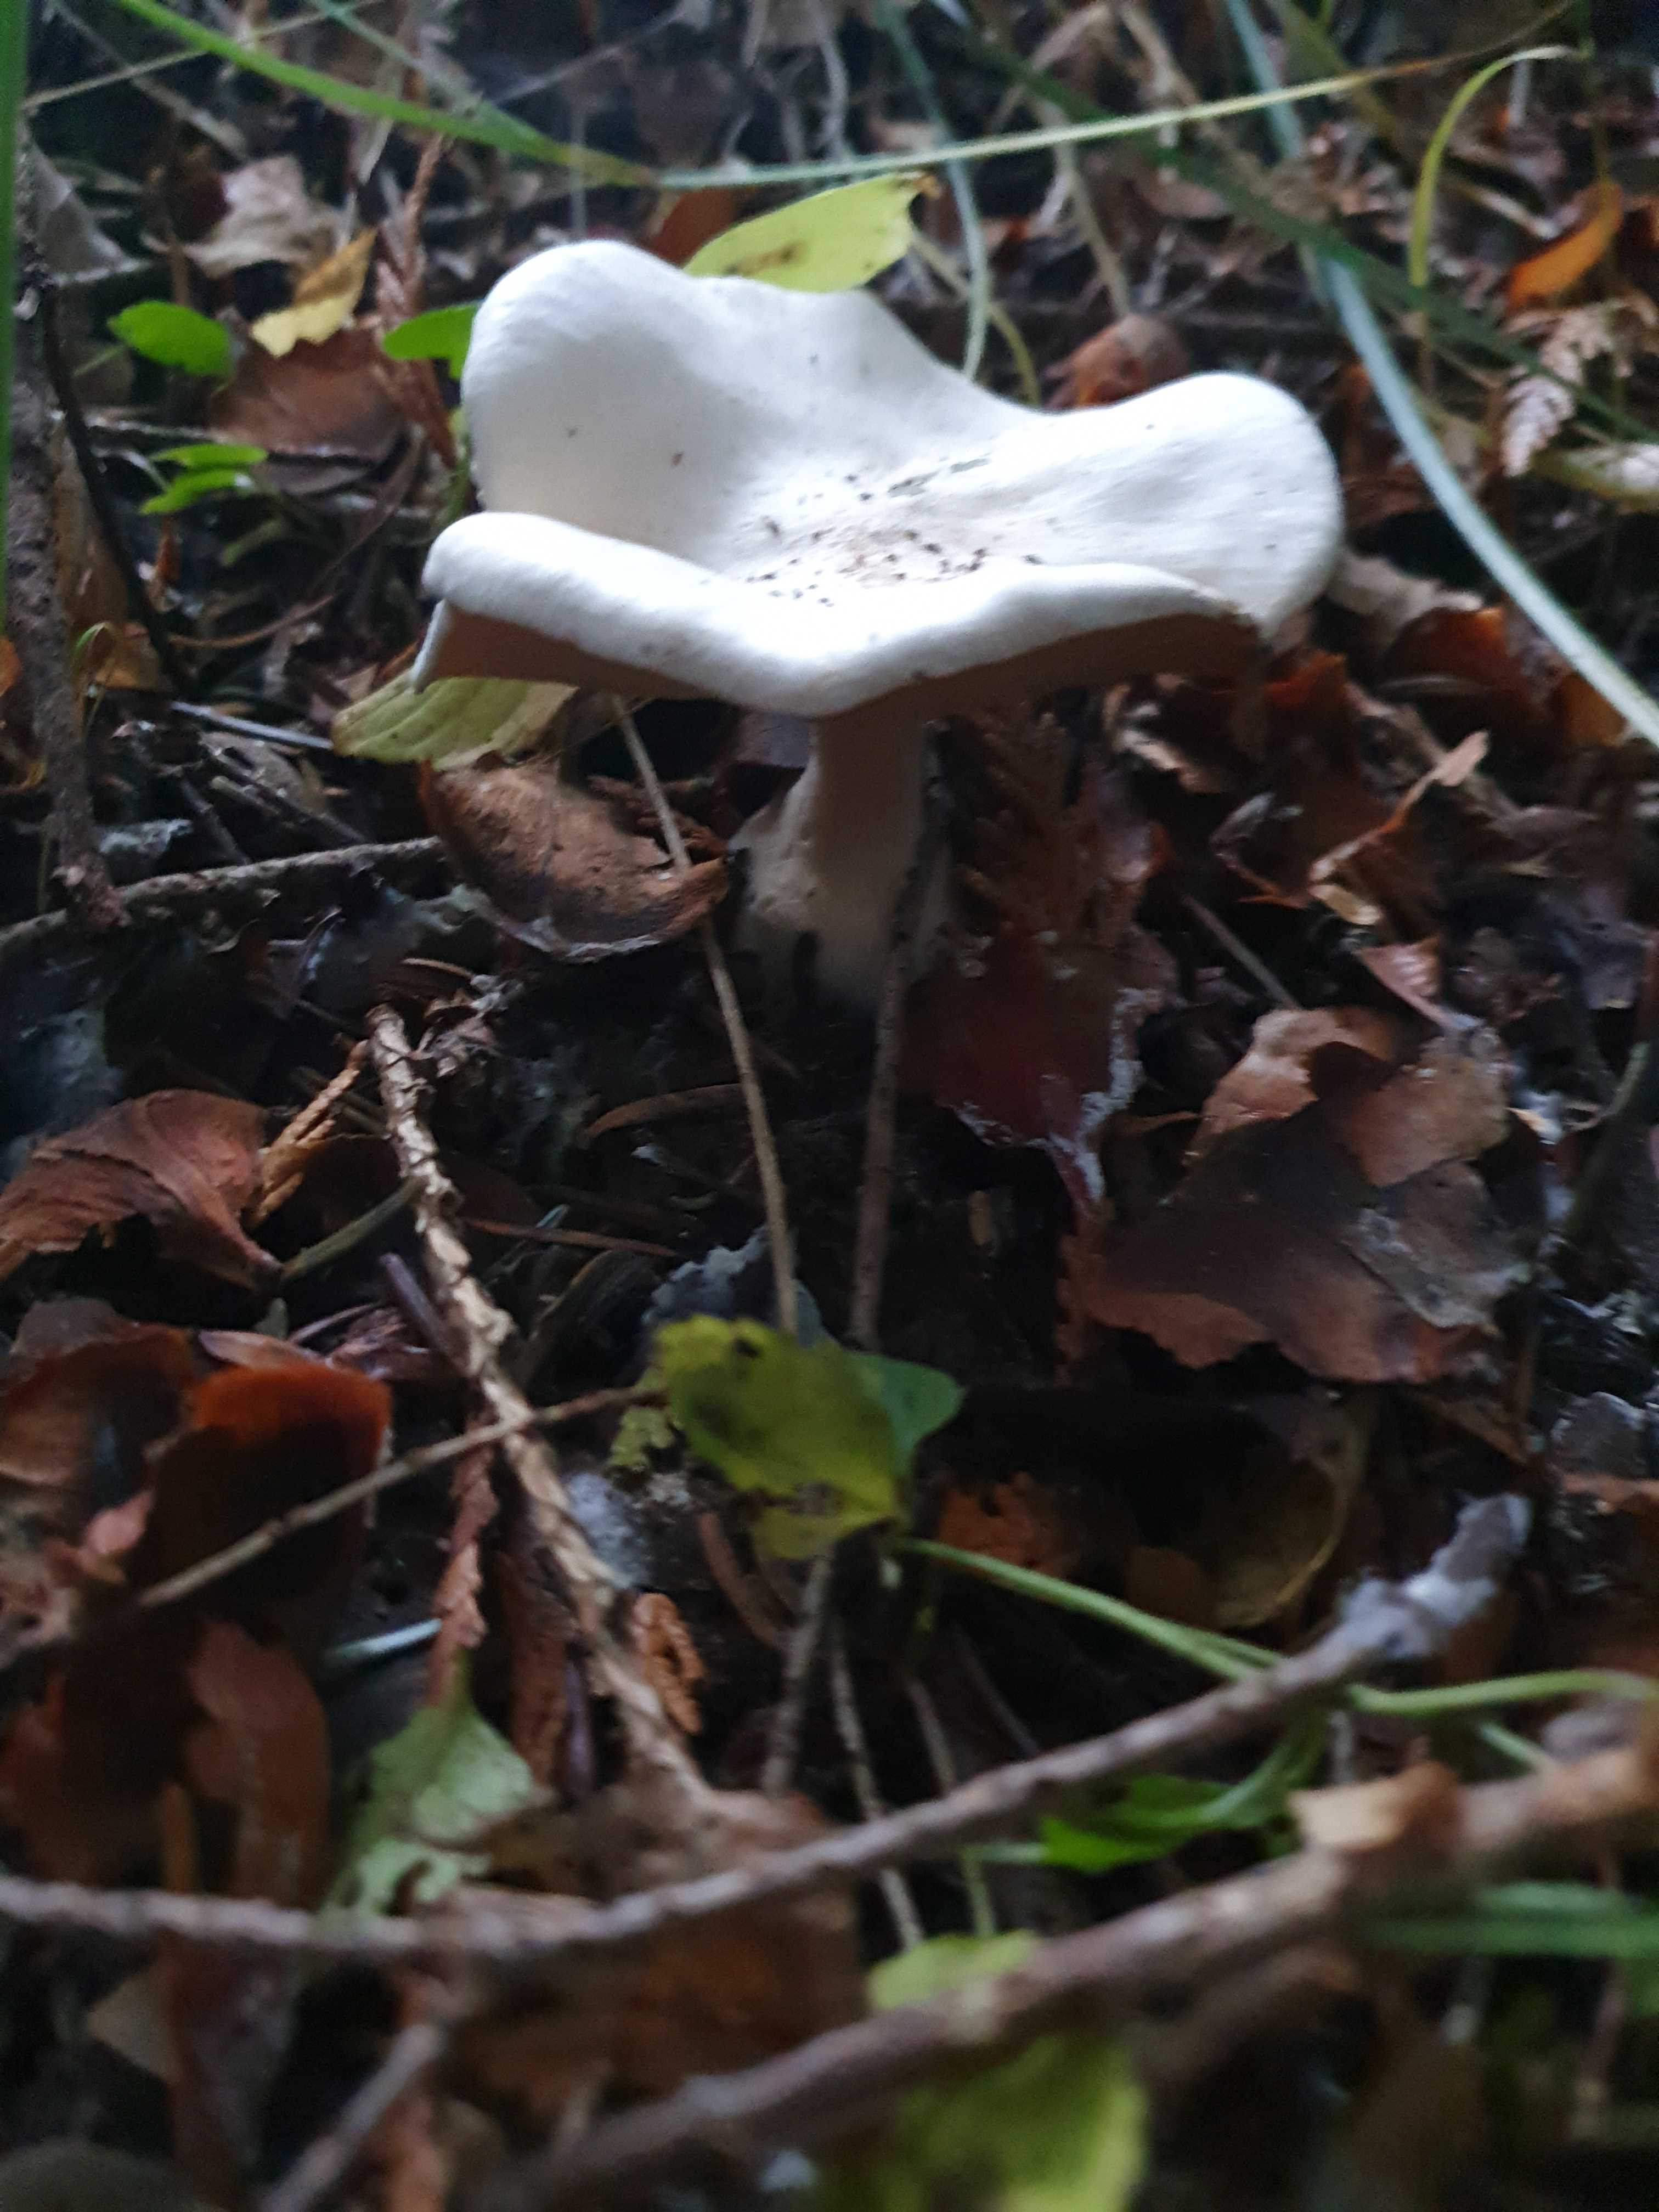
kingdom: Fungi
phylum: Basidiomycota
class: Agaricomycetes
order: Agaricales
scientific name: Agaricales
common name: champignonordenen
